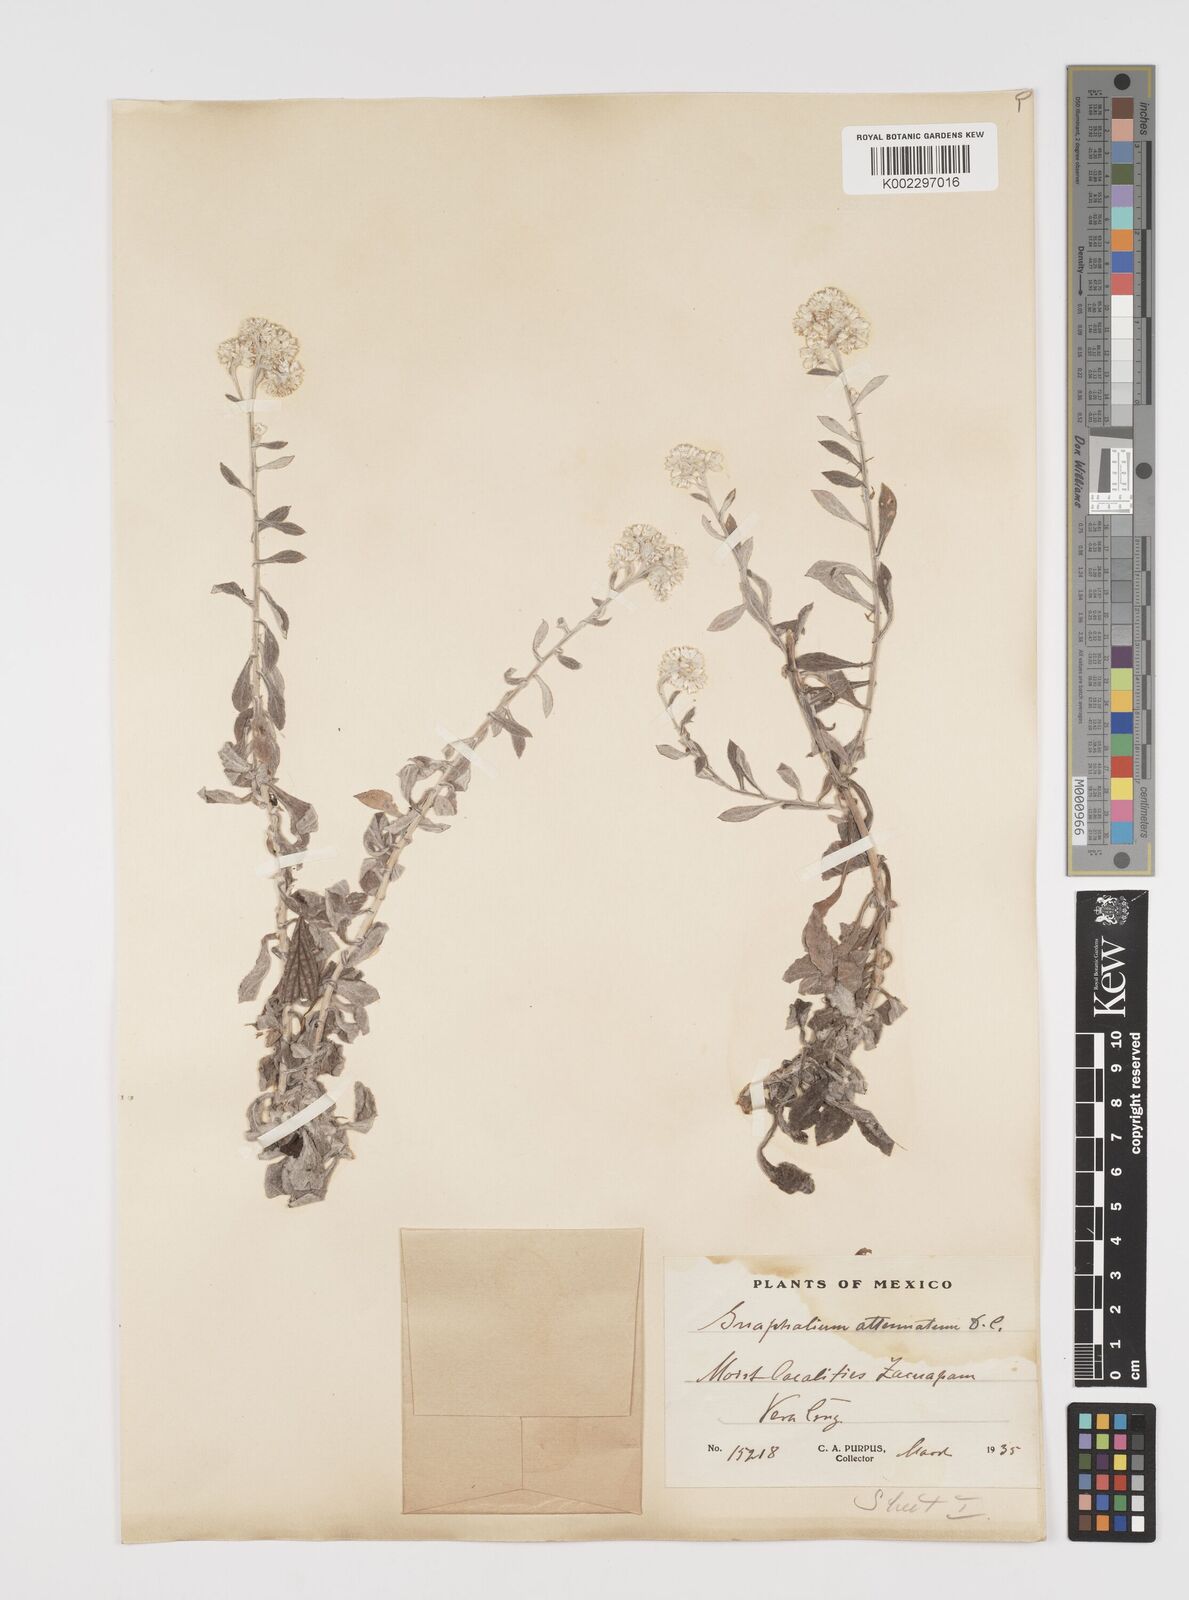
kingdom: Plantae
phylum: Tracheophyta
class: Magnoliopsida
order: Asterales
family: Asteraceae
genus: Pseudognaphalium
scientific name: Pseudognaphalium attenuatum
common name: Tapered cudweed
